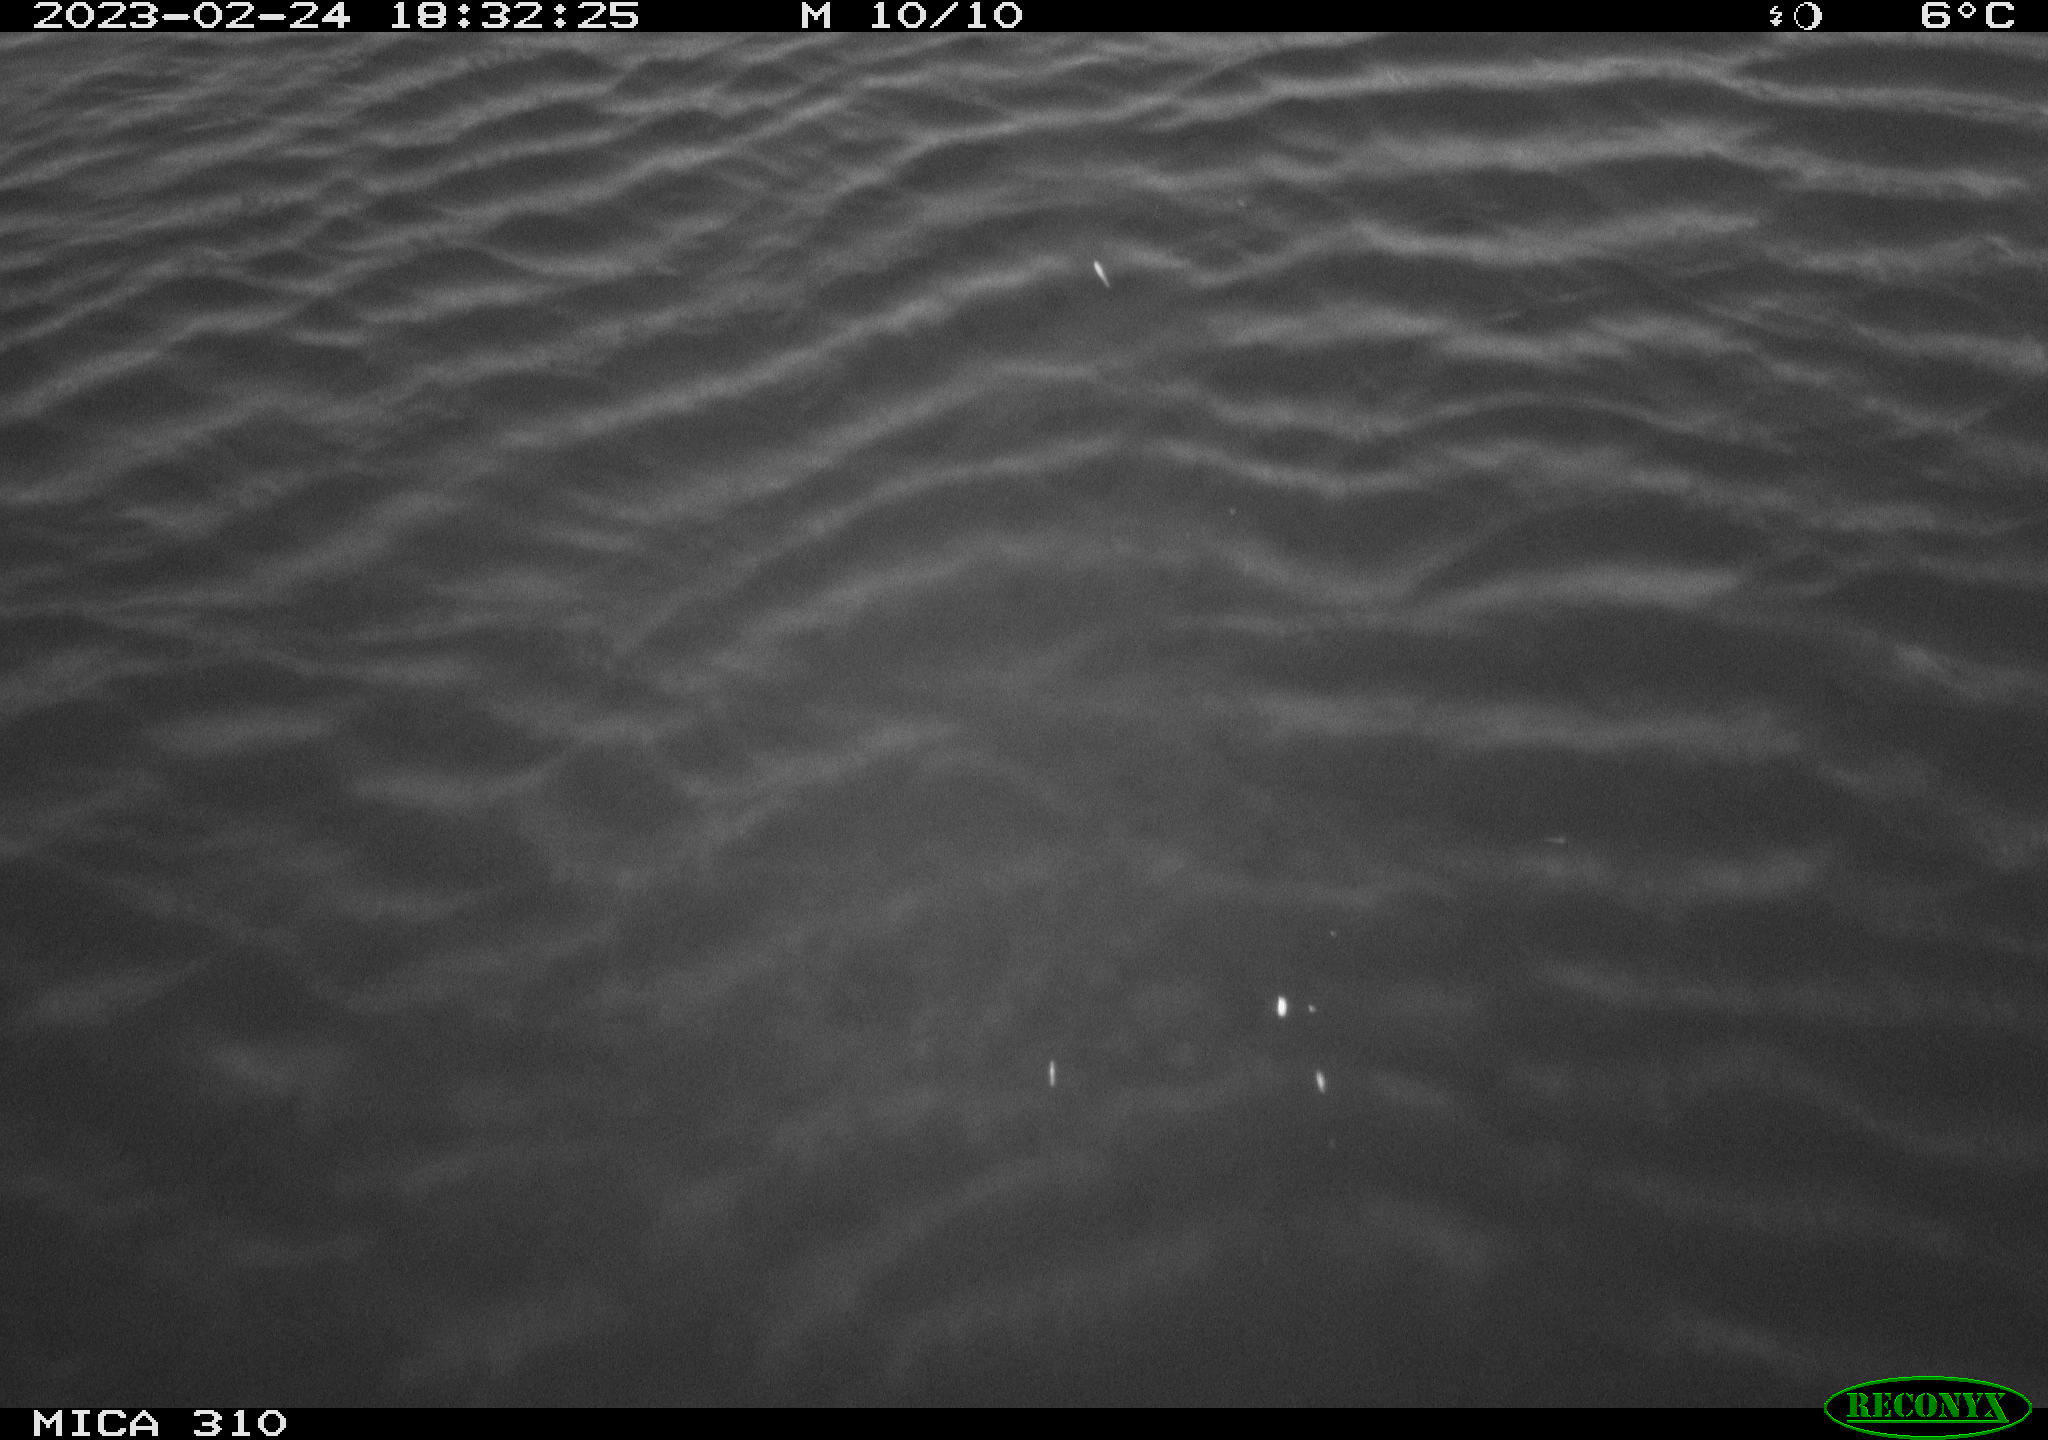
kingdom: Animalia
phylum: Chordata
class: Aves
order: Anseriformes
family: Anatidae
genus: Anas
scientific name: Anas
